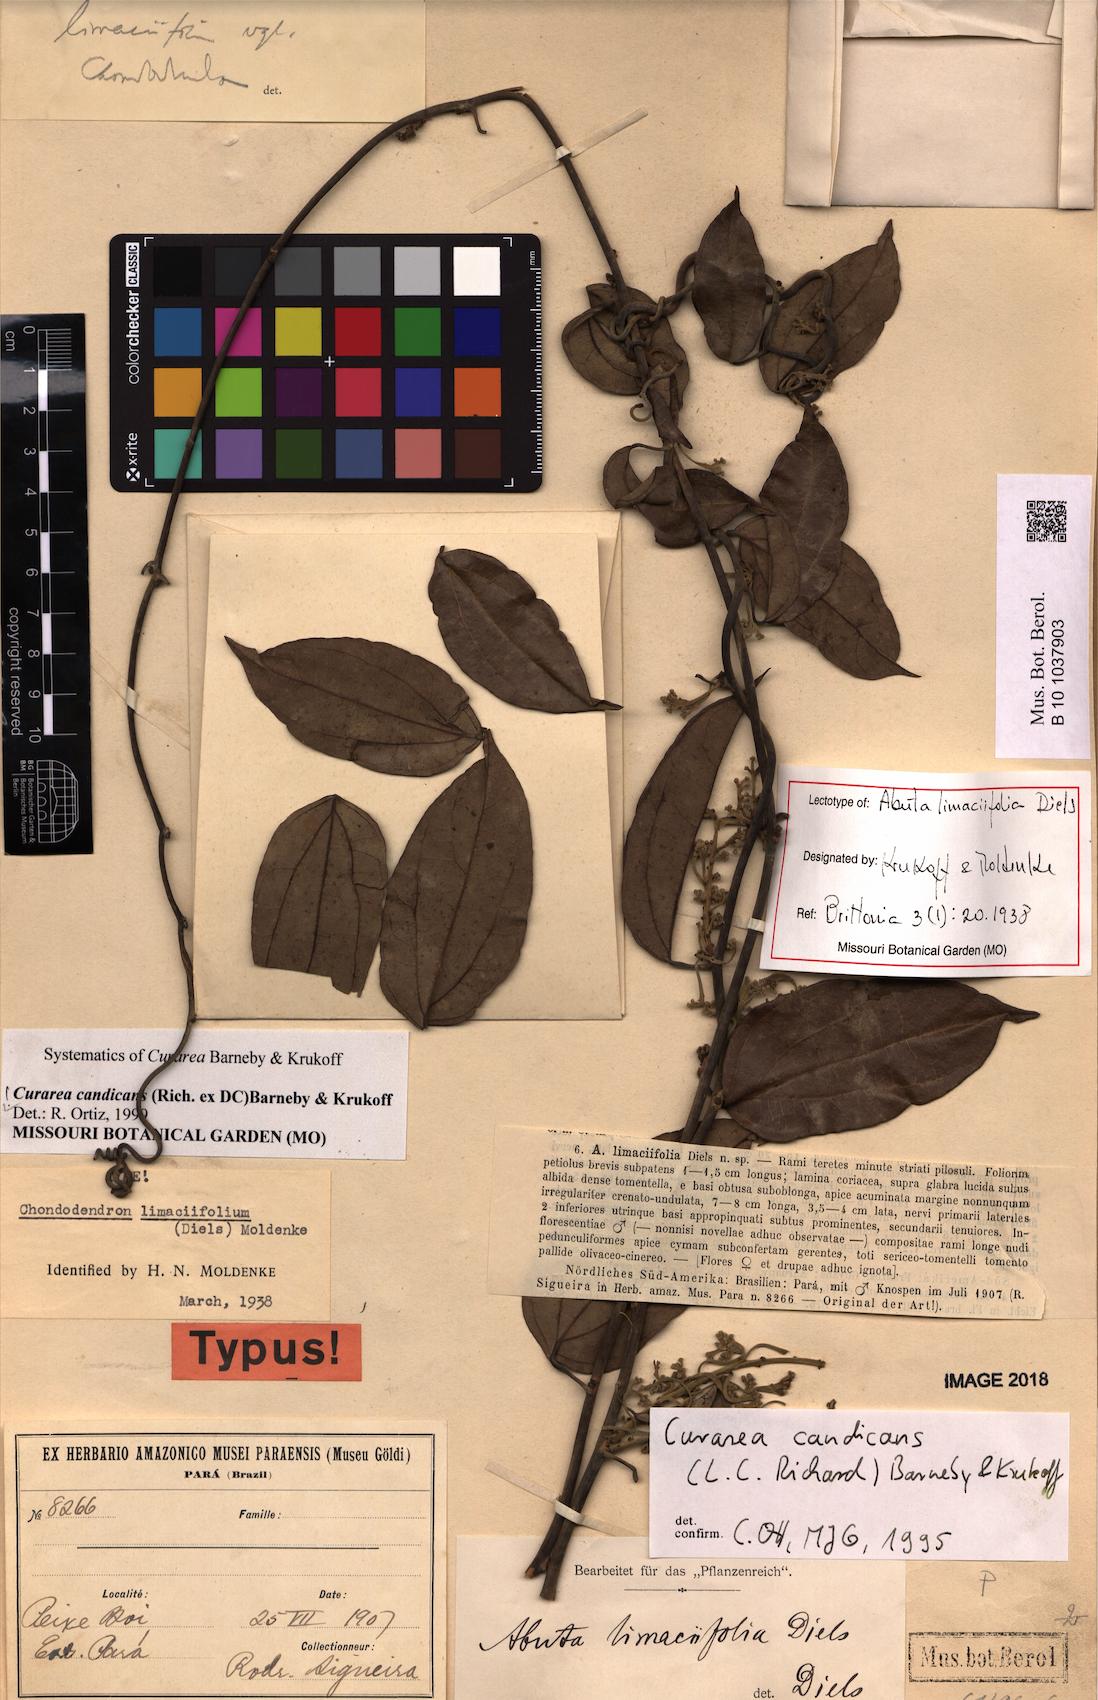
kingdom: Plantae
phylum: Tracheophyta
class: Magnoliopsida
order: Ranunculales
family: Menispermaceae
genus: Curarea
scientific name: Curarea candicans
